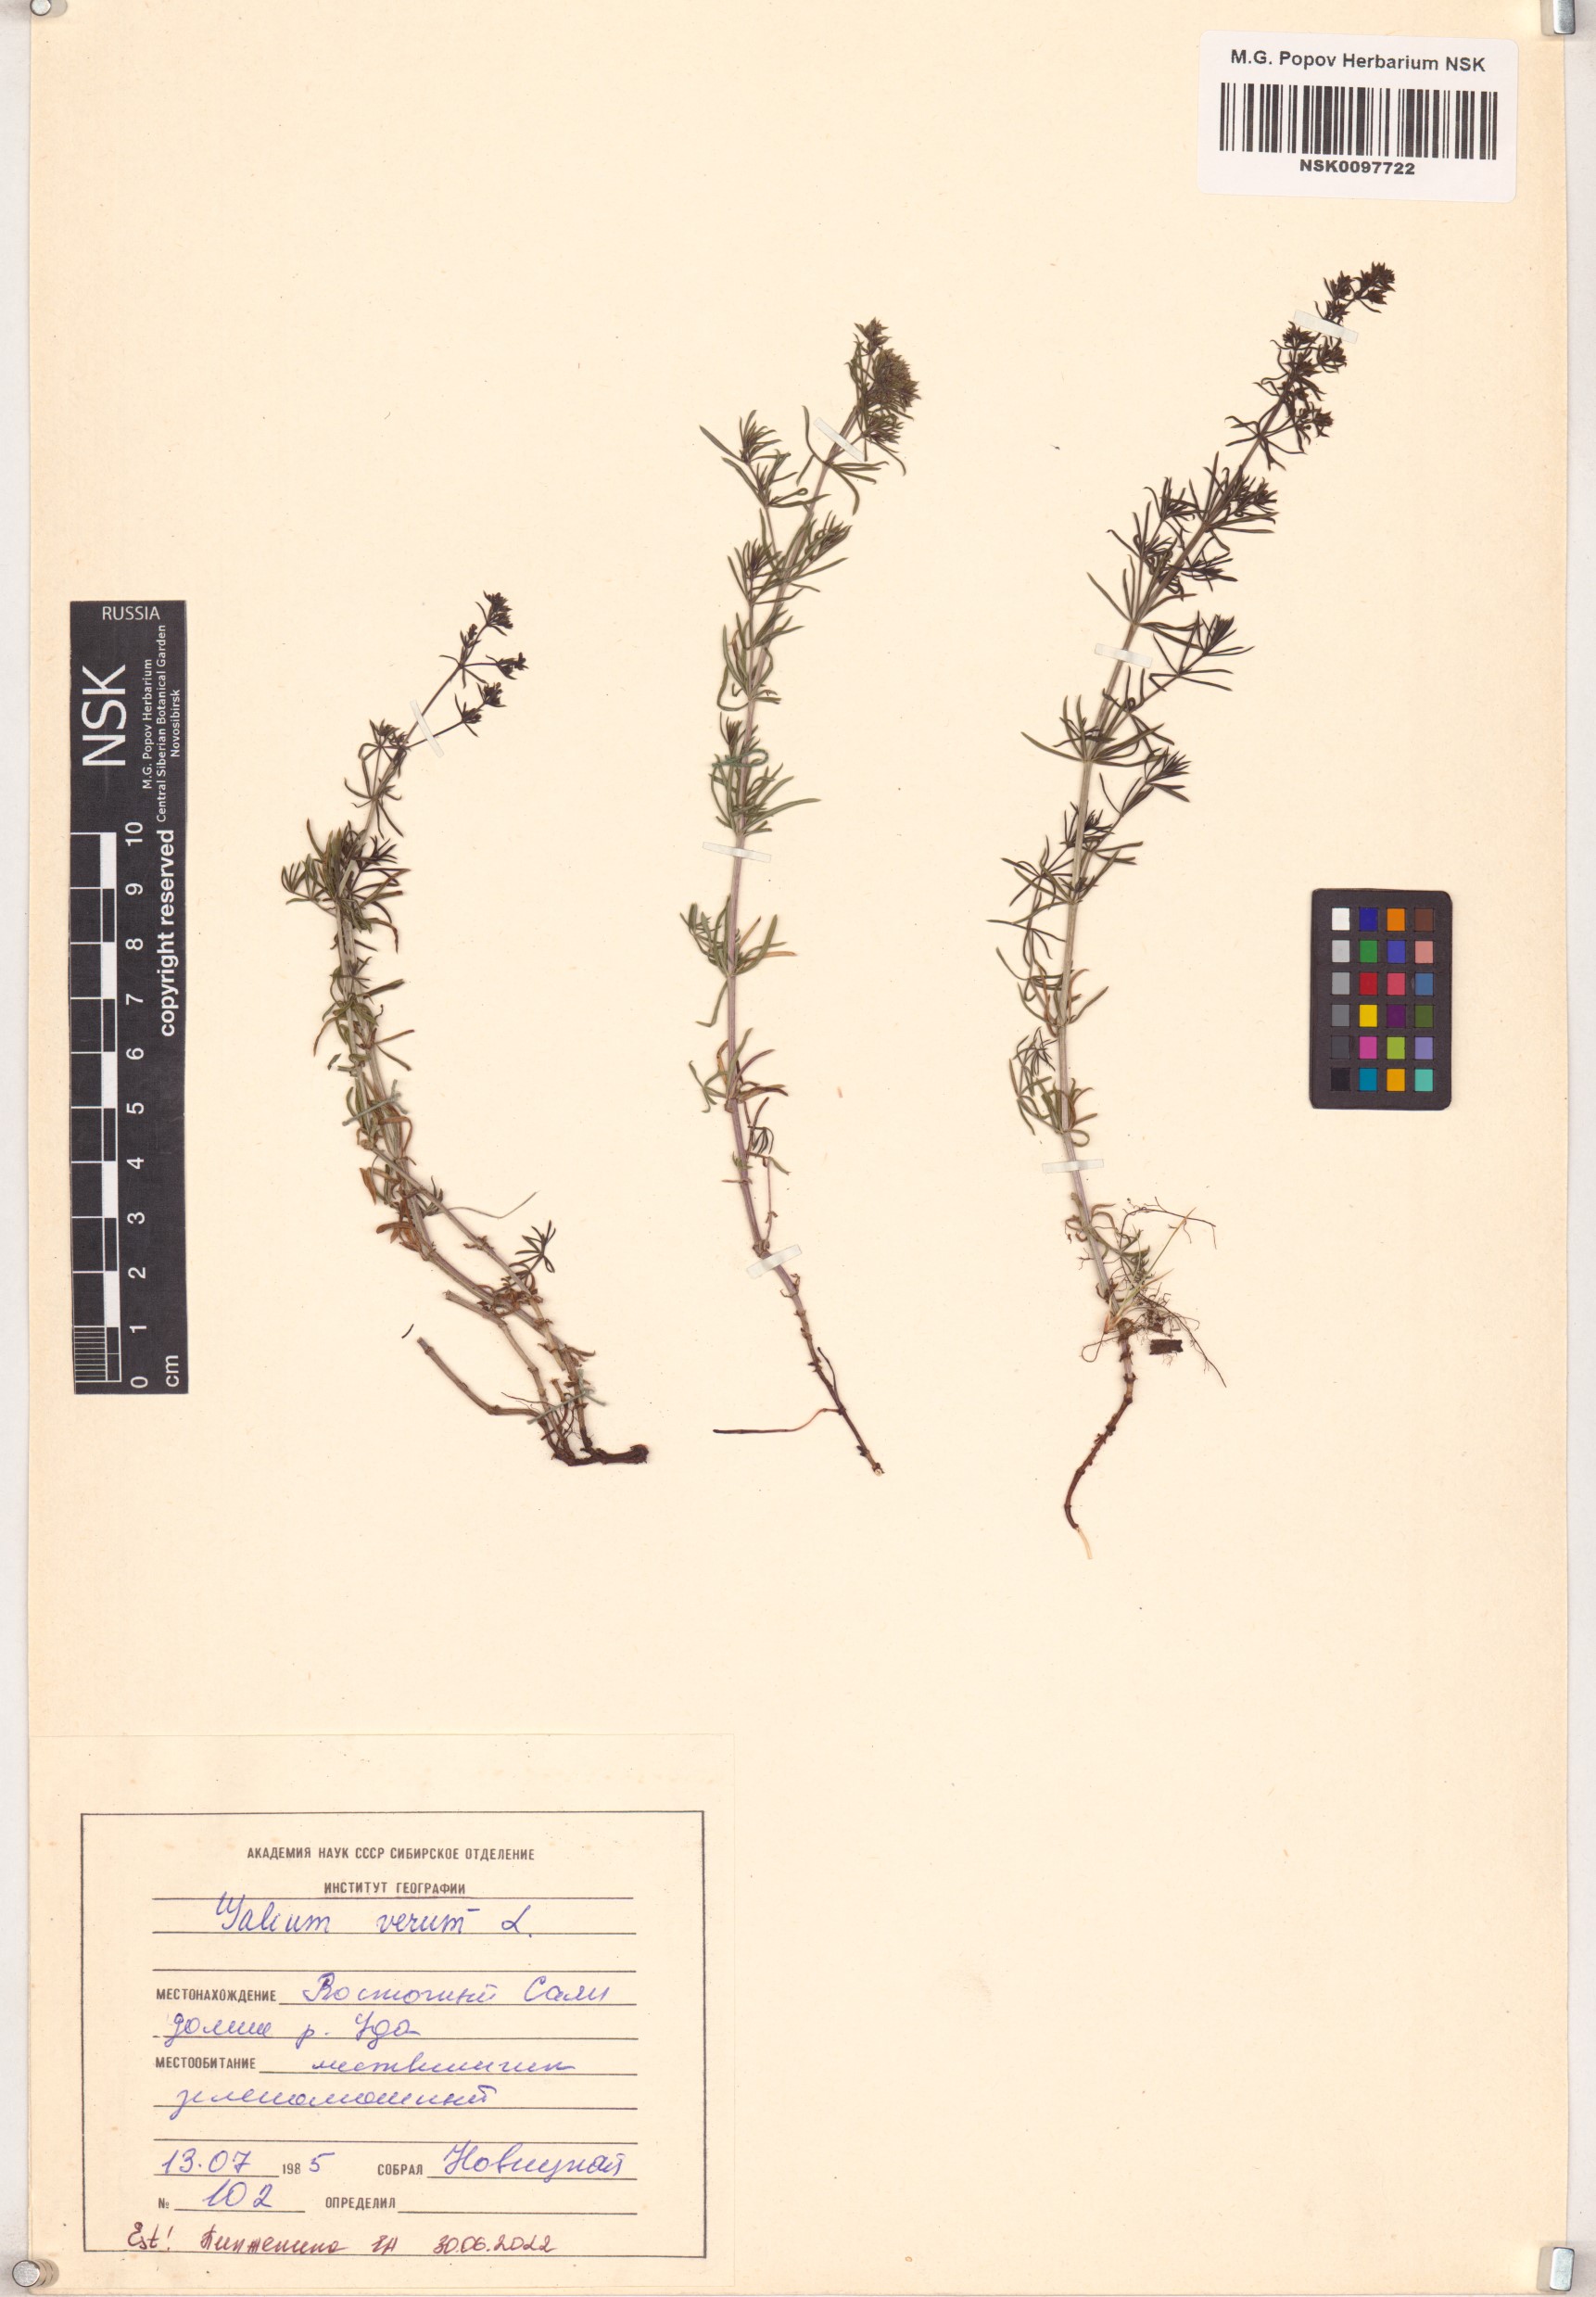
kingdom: Plantae
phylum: Tracheophyta
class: Magnoliopsida
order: Gentianales
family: Rubiaceae
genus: Galium
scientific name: Galium verum
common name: Lady's bedstraw
